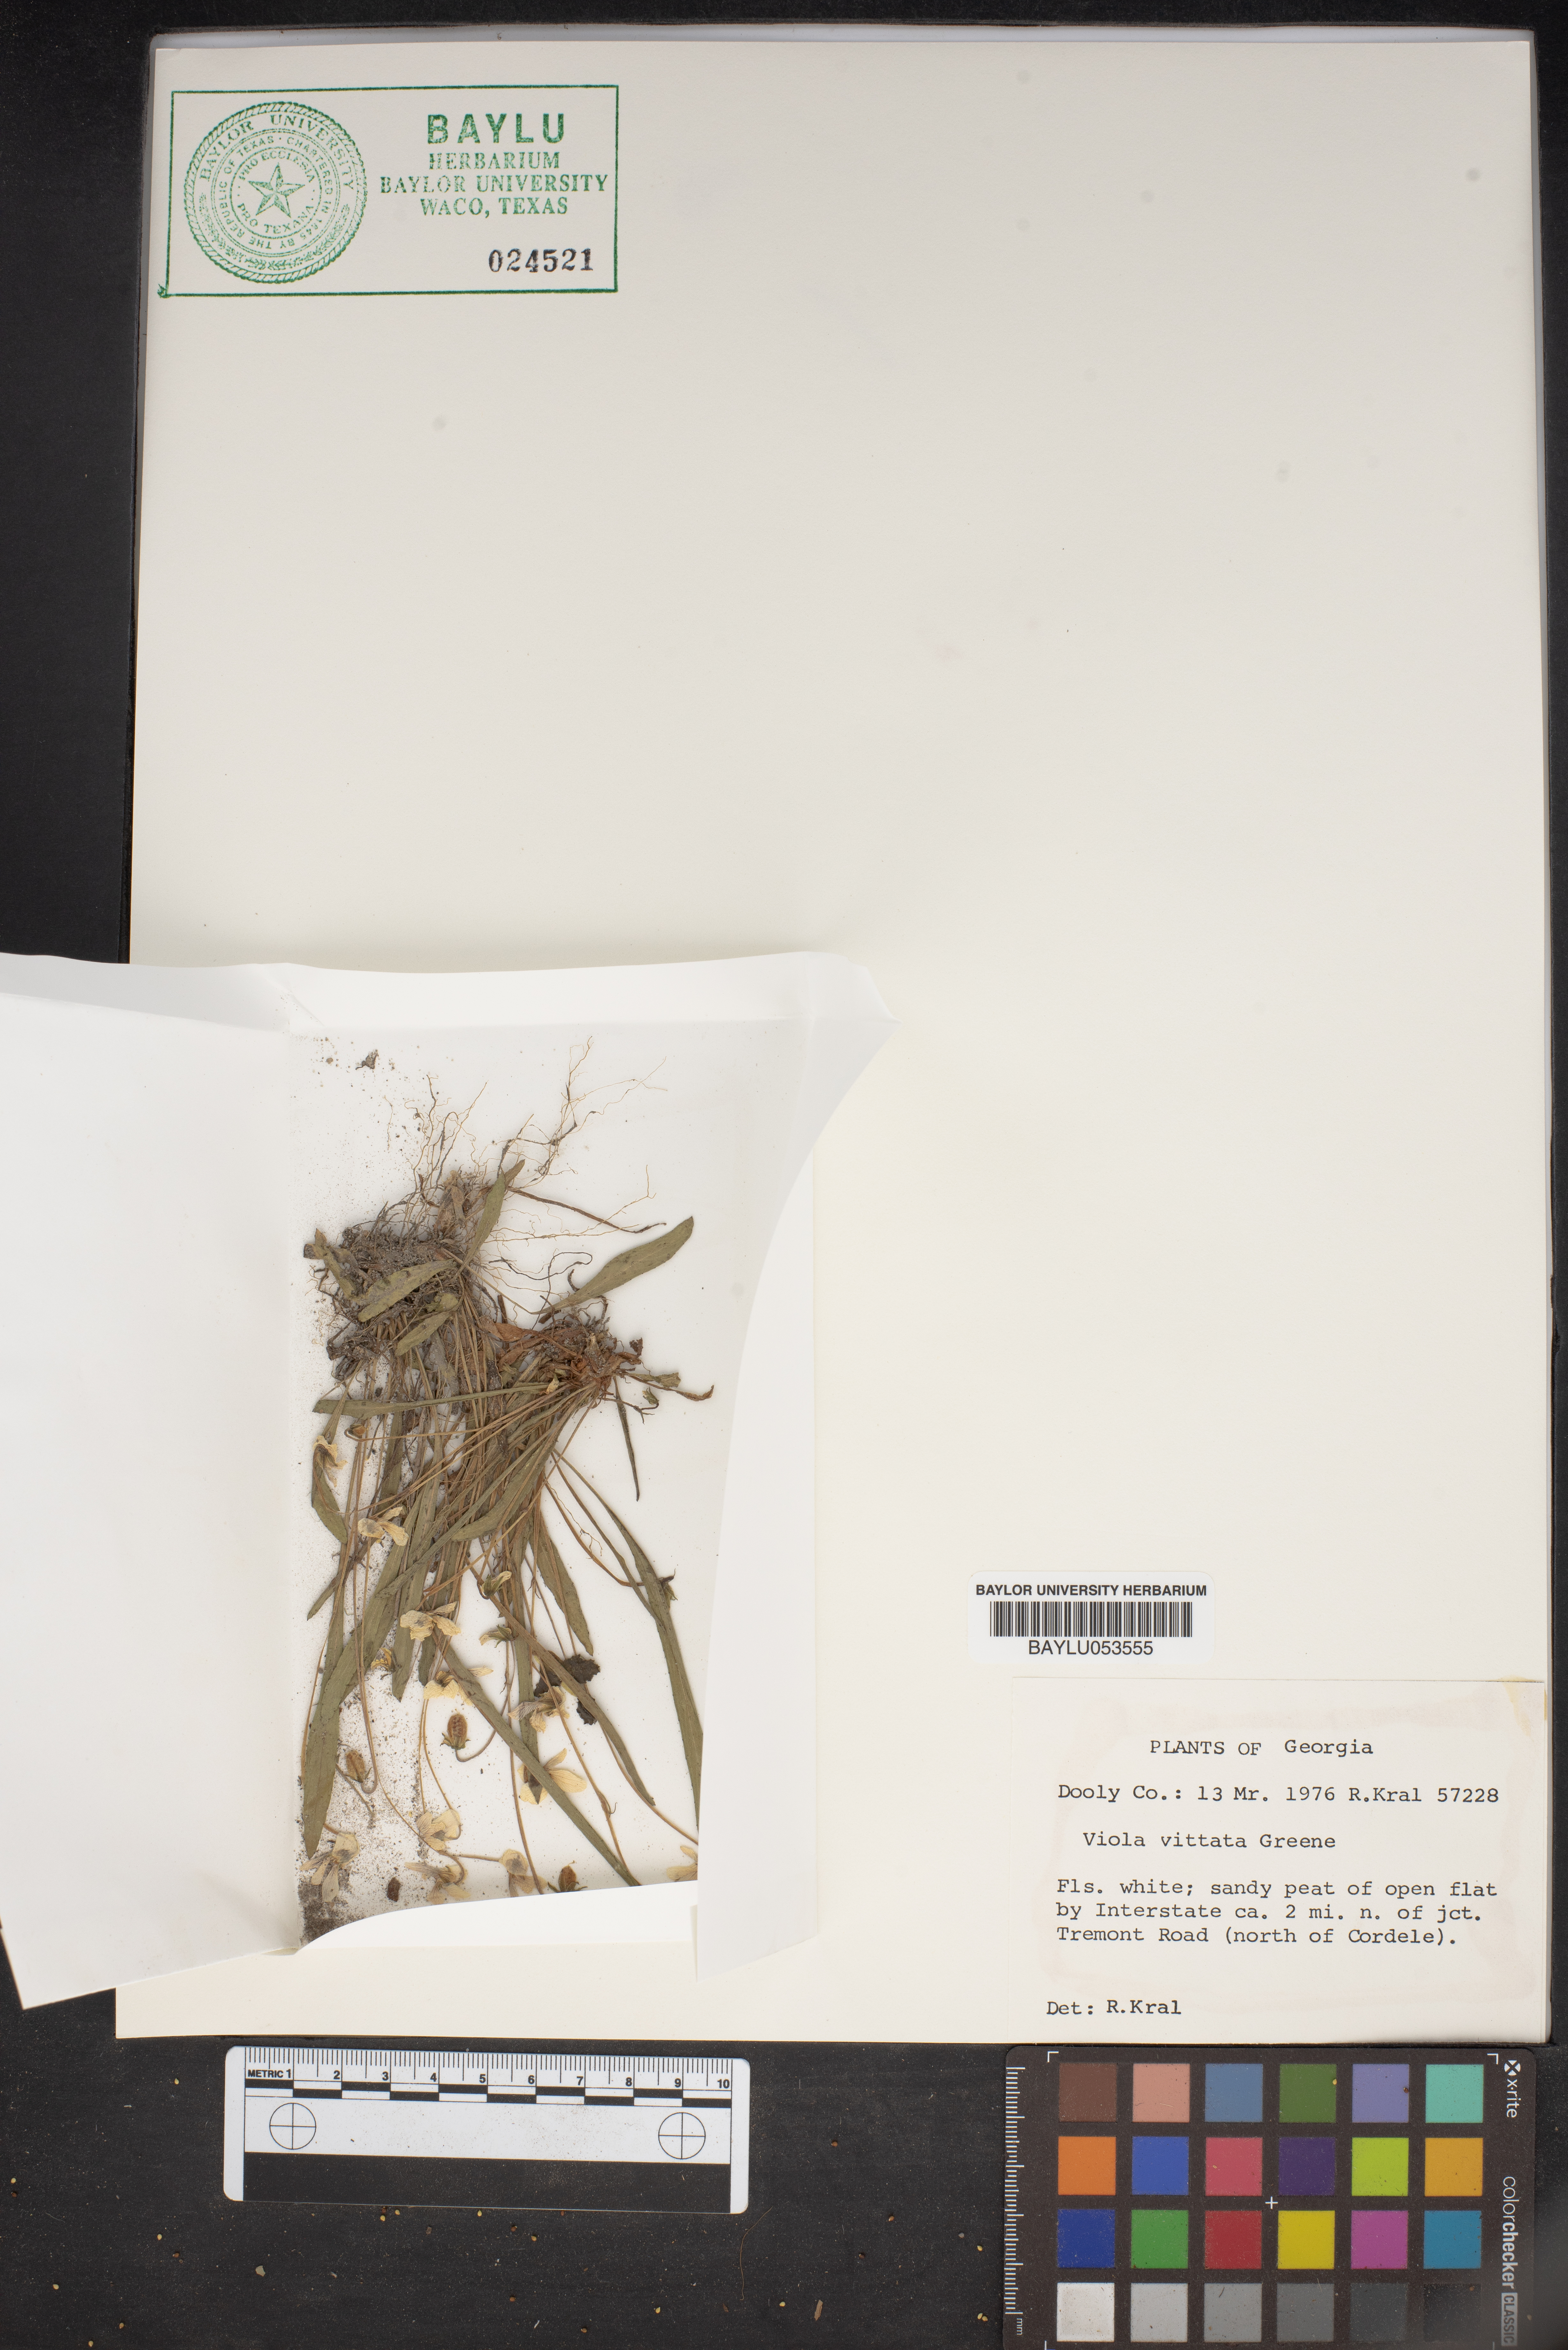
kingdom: Plantae
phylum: Tracheophyta
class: Magnoliopsida
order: Malpighiales
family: Violaceae
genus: Viola
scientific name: Viola vittata
